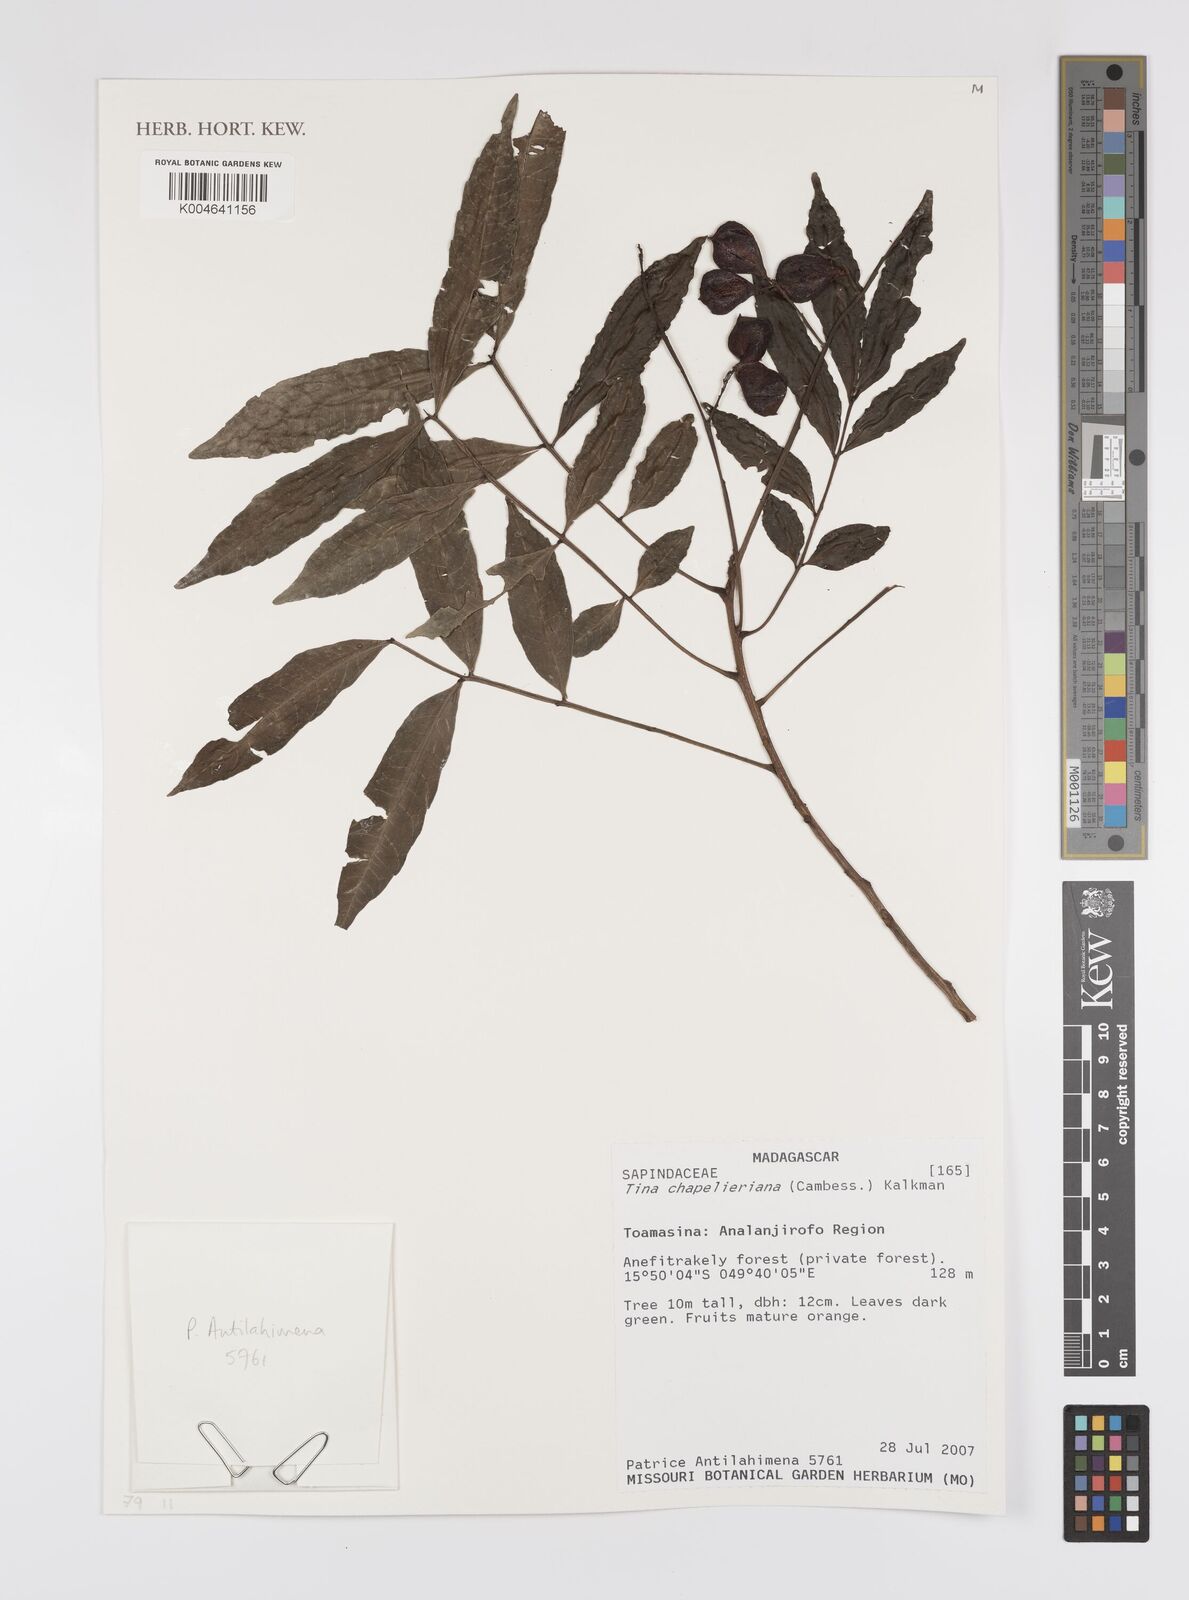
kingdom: Plantae
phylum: Tracheophyta
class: Magnoliopsida
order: Sapindales
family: Sapindaceae
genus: Tina
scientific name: Tina chapelieriana
